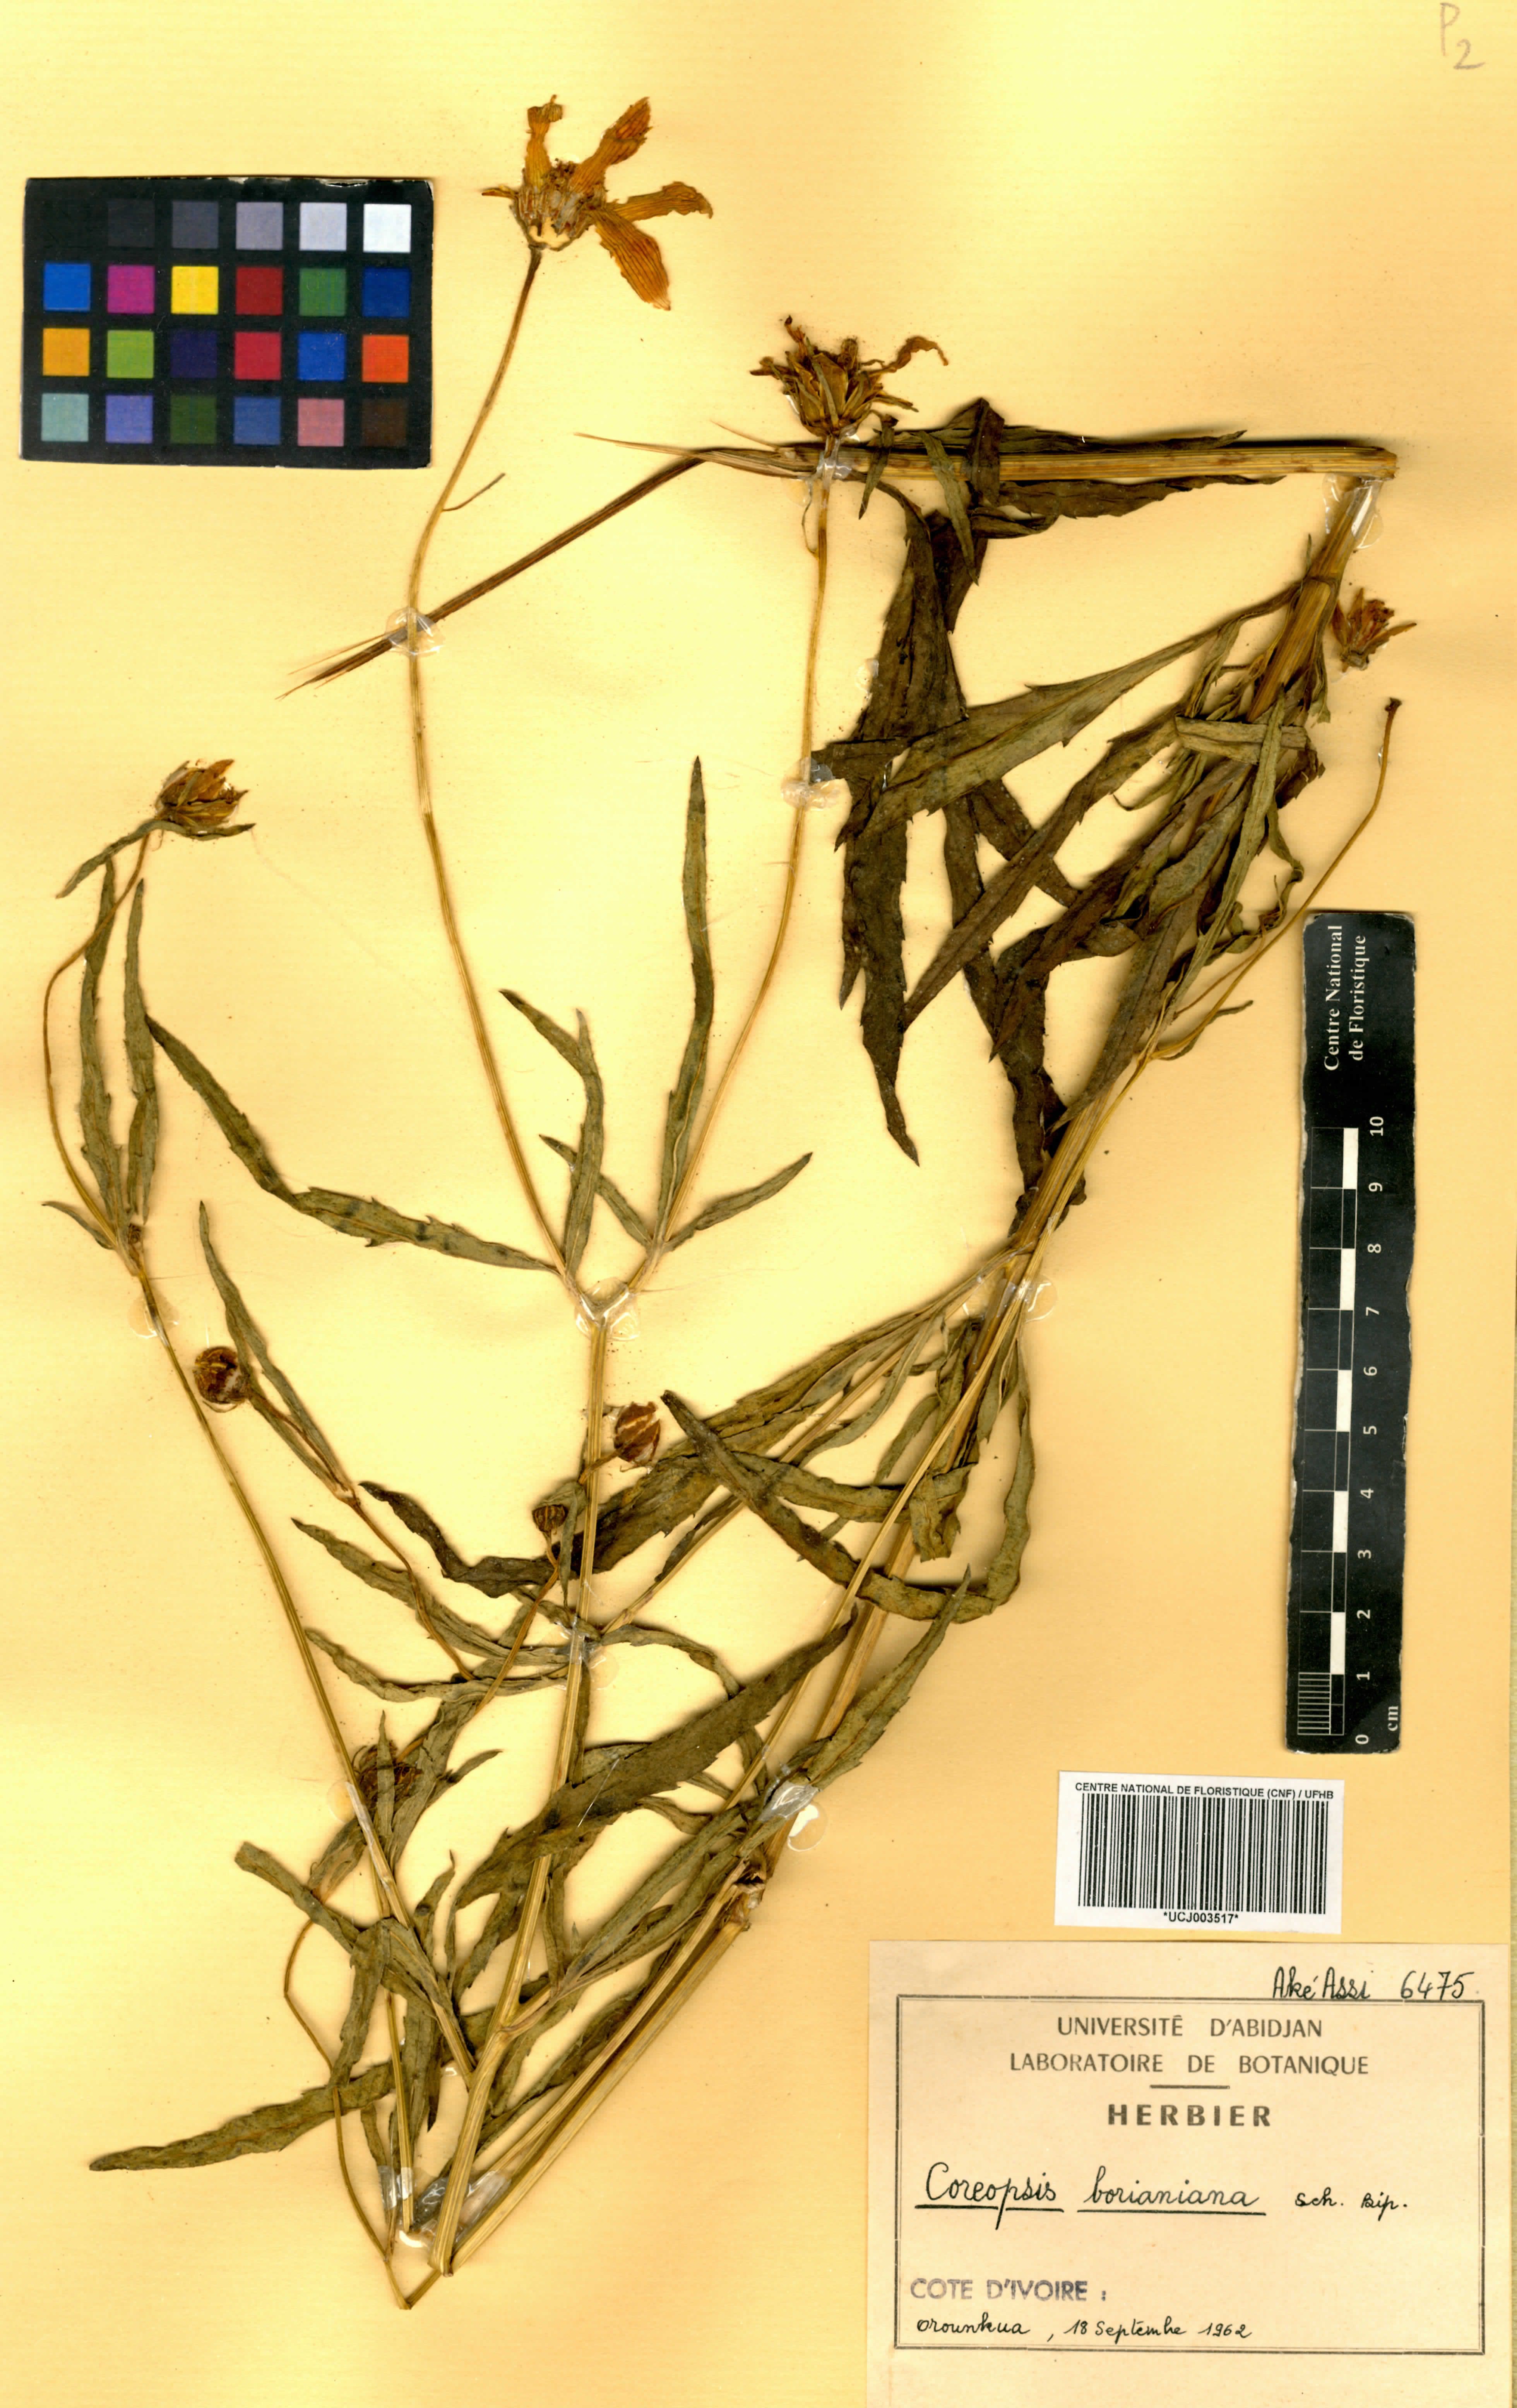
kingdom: Plantae
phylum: Tracheophyta
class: Magnoliopsida
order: Asterales
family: Asteraceae
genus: Coreopsis
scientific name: Coreopsis borianiana
